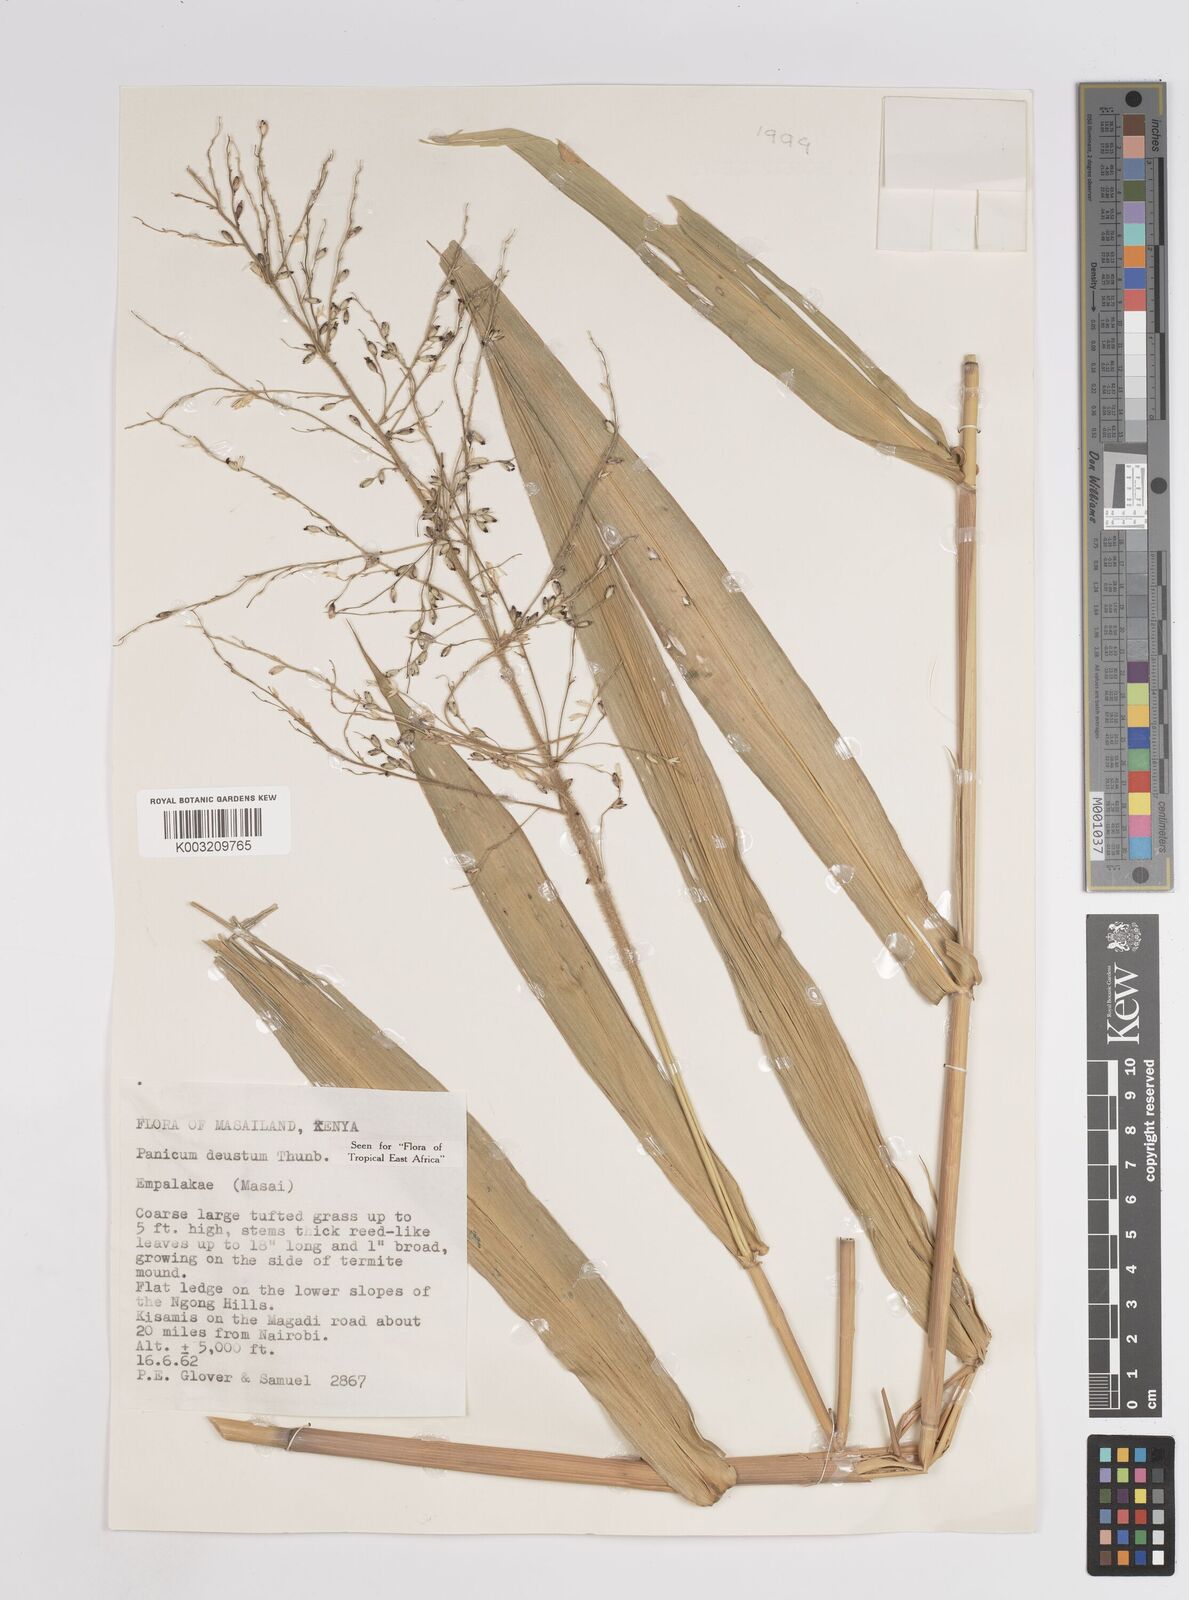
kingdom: Plantae
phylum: Tracheophyta
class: Liliopsida
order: Poales
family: Poaceae
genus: Panicum
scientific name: Panicum
